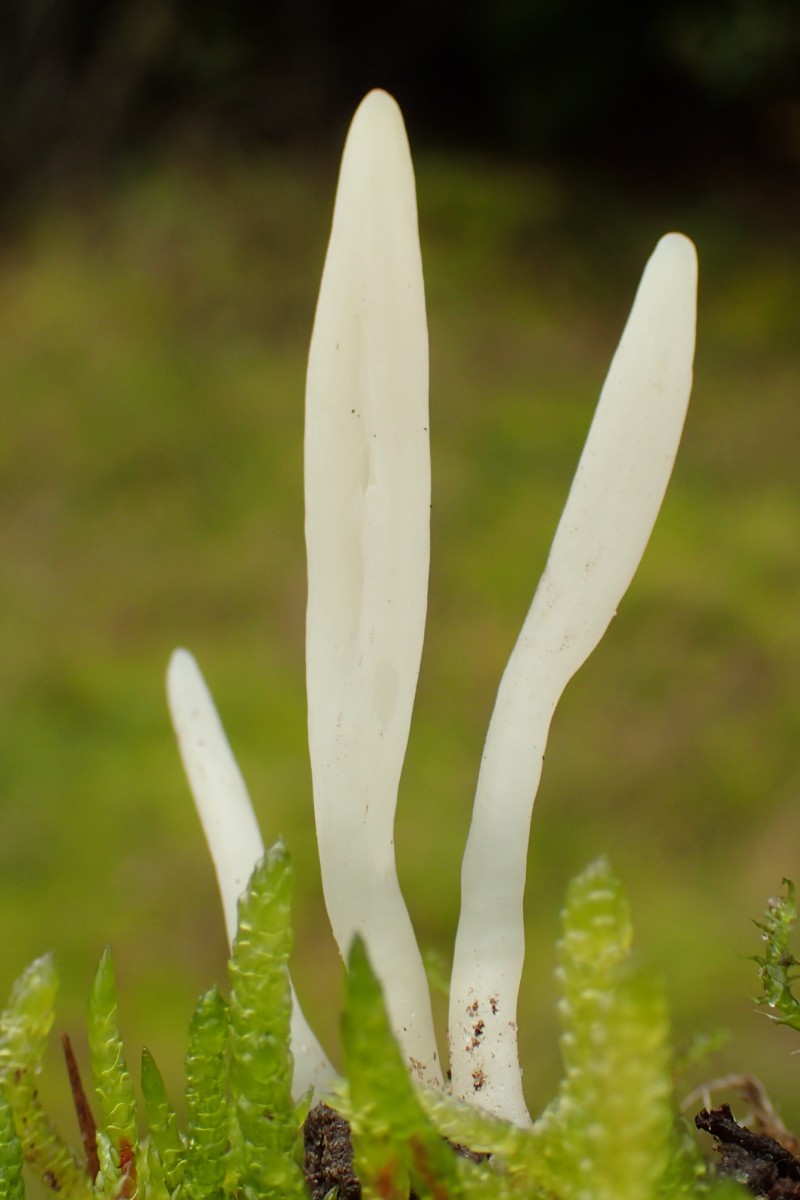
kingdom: Fungi
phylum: Basidiomycota
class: Agaricomycetes
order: Agaricales
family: Clavariaceae
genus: Clavaria
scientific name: Clavaria falcata
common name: hvid køllesvamp
